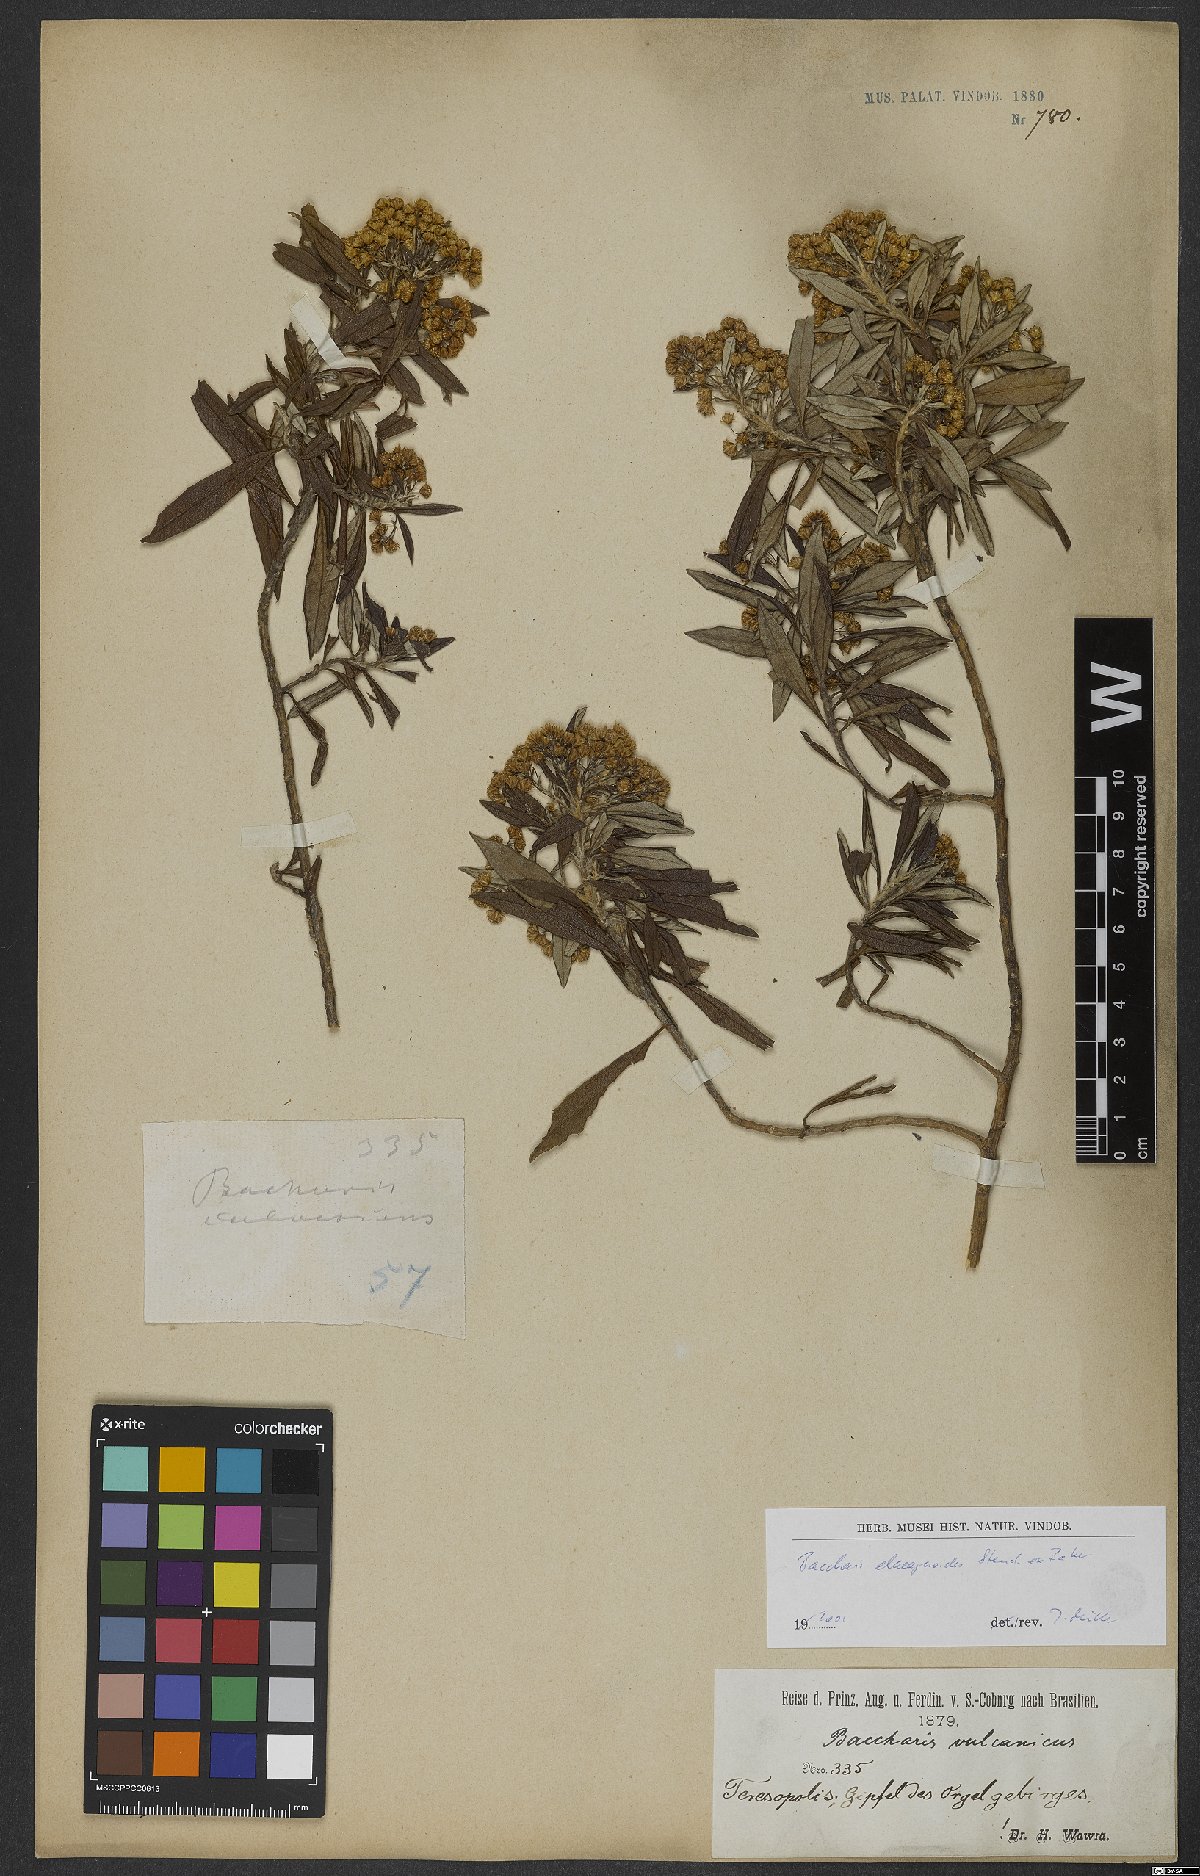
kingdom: Plantae
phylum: Tracheophyta
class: Magnoliopsida
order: Asterales
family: Asteraceae
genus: Baccharis
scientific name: Baccharis montana
